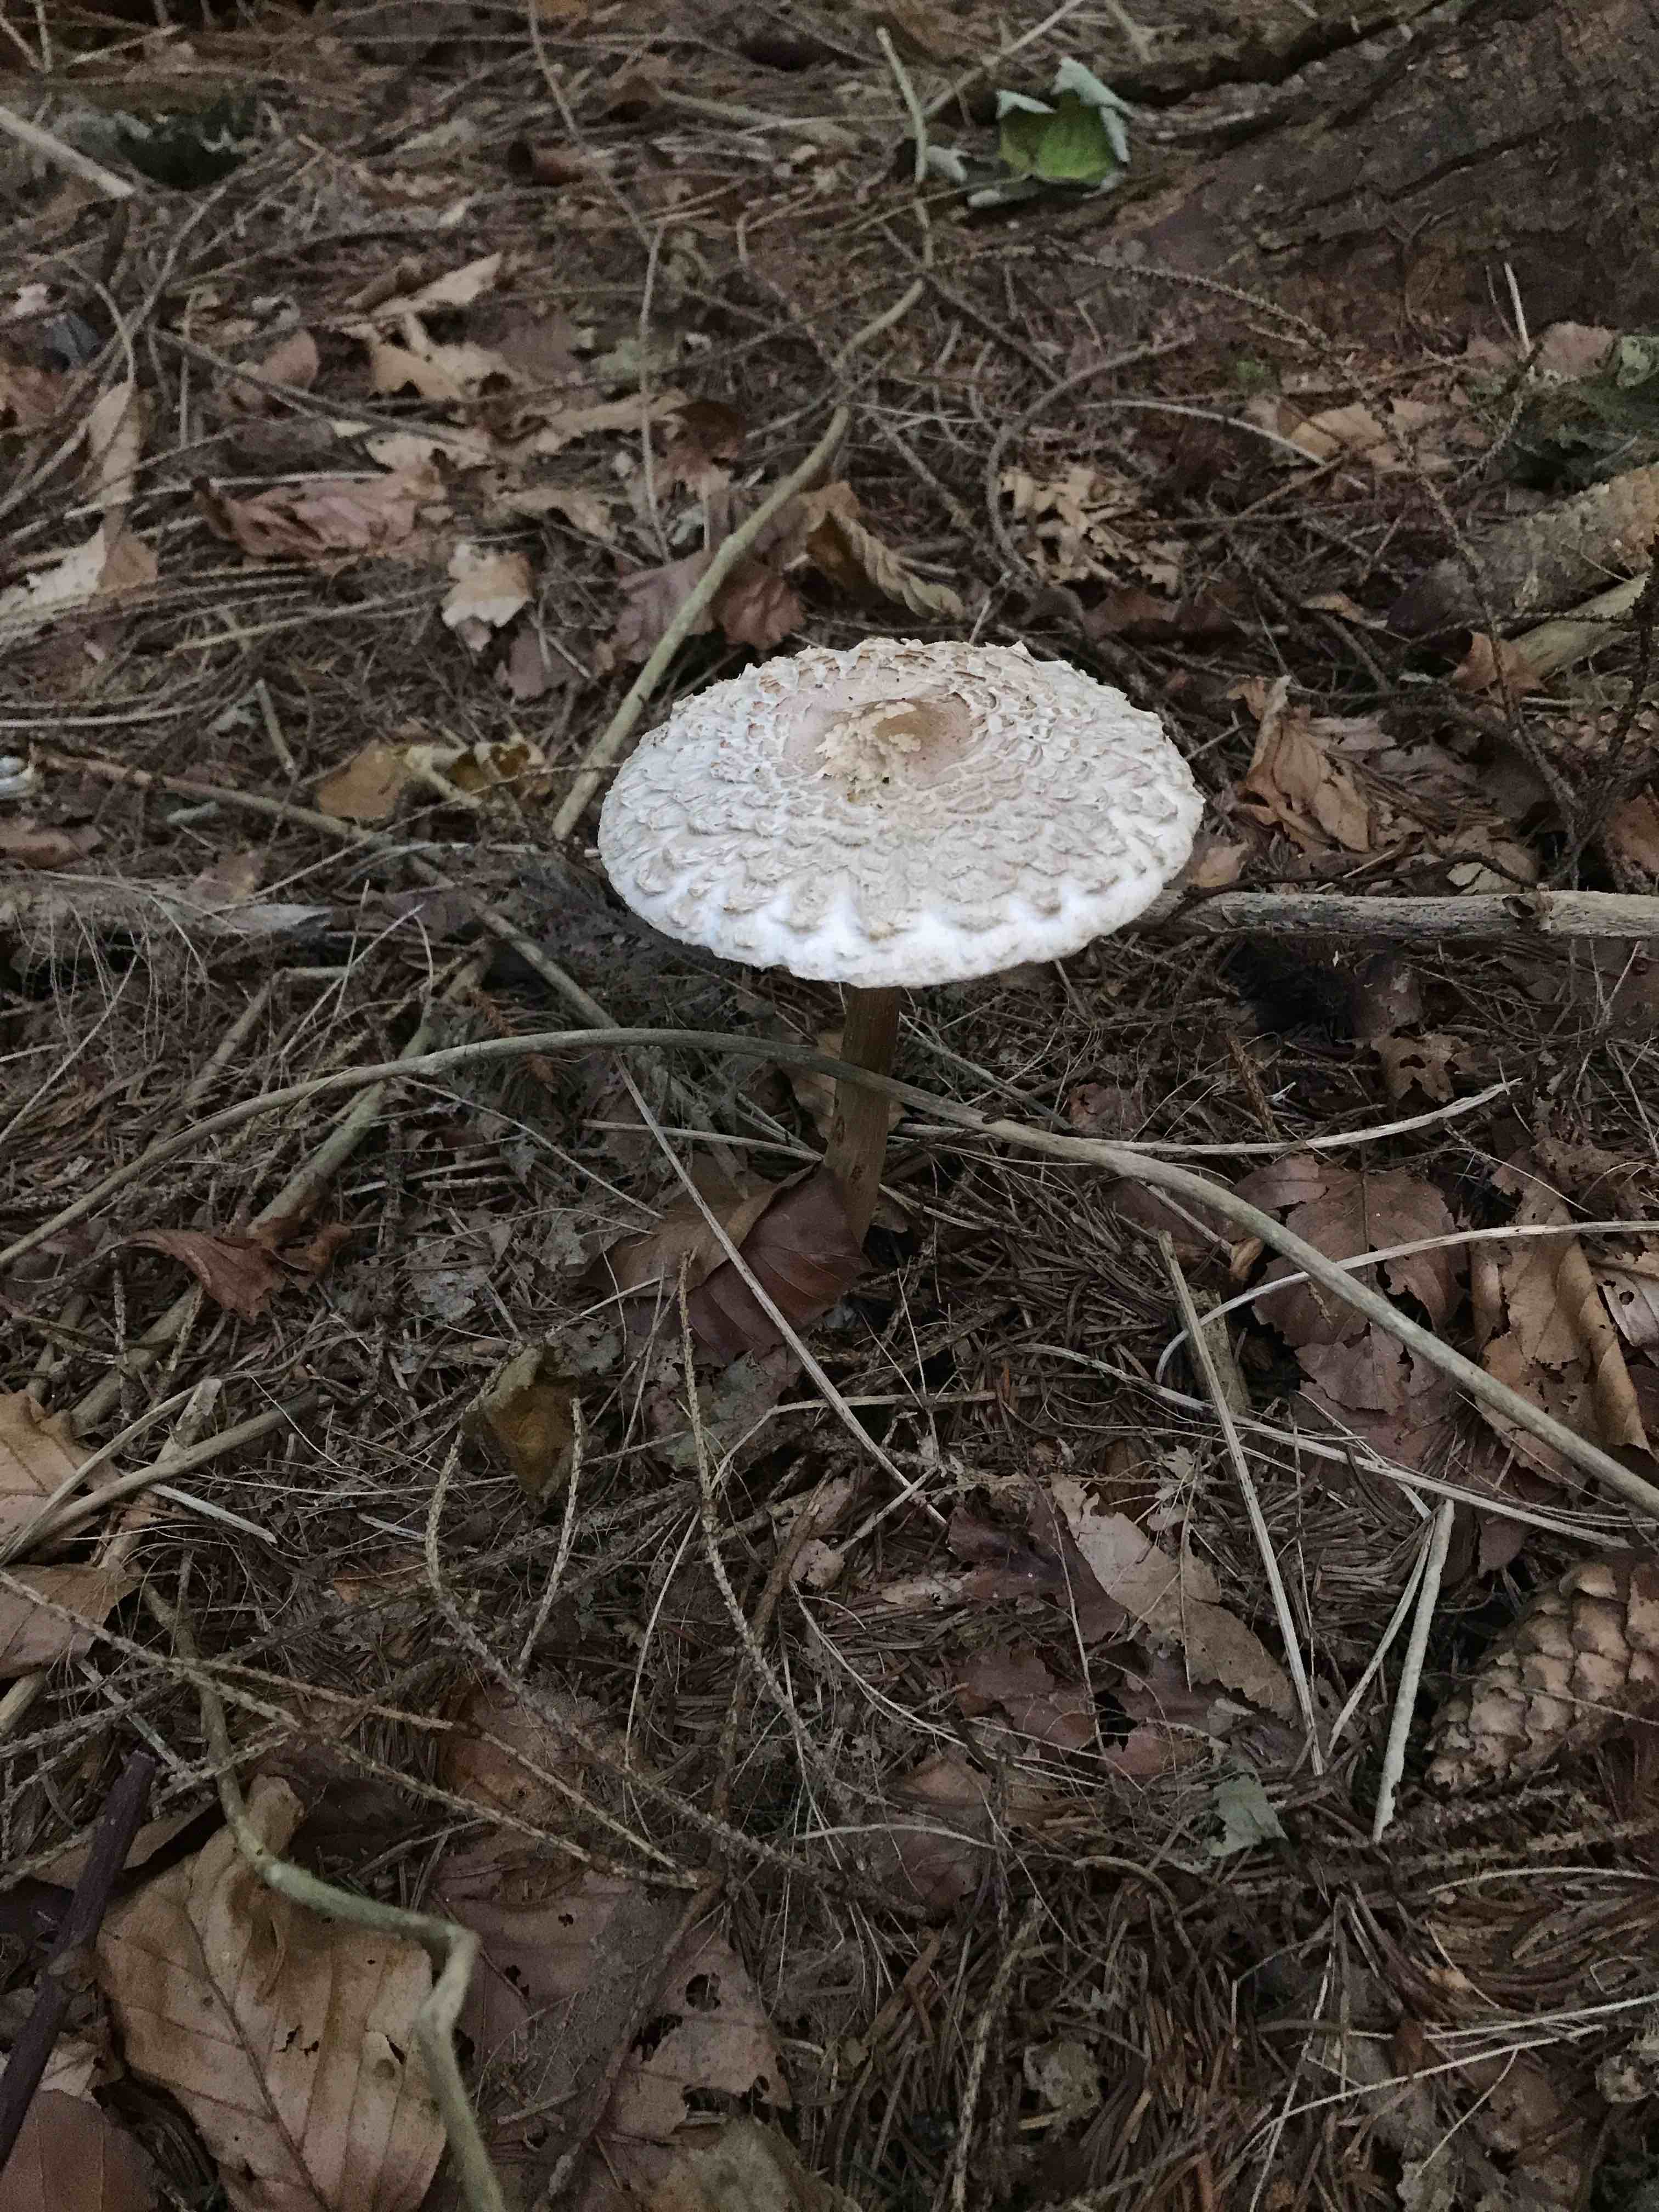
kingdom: Fungi
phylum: Basidiomycota
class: Agaricomycetes
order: Agaricales
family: Agaricaceae
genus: Chlorophyllum
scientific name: Chlorophyllum olivieri
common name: almindelig rabarberhat
